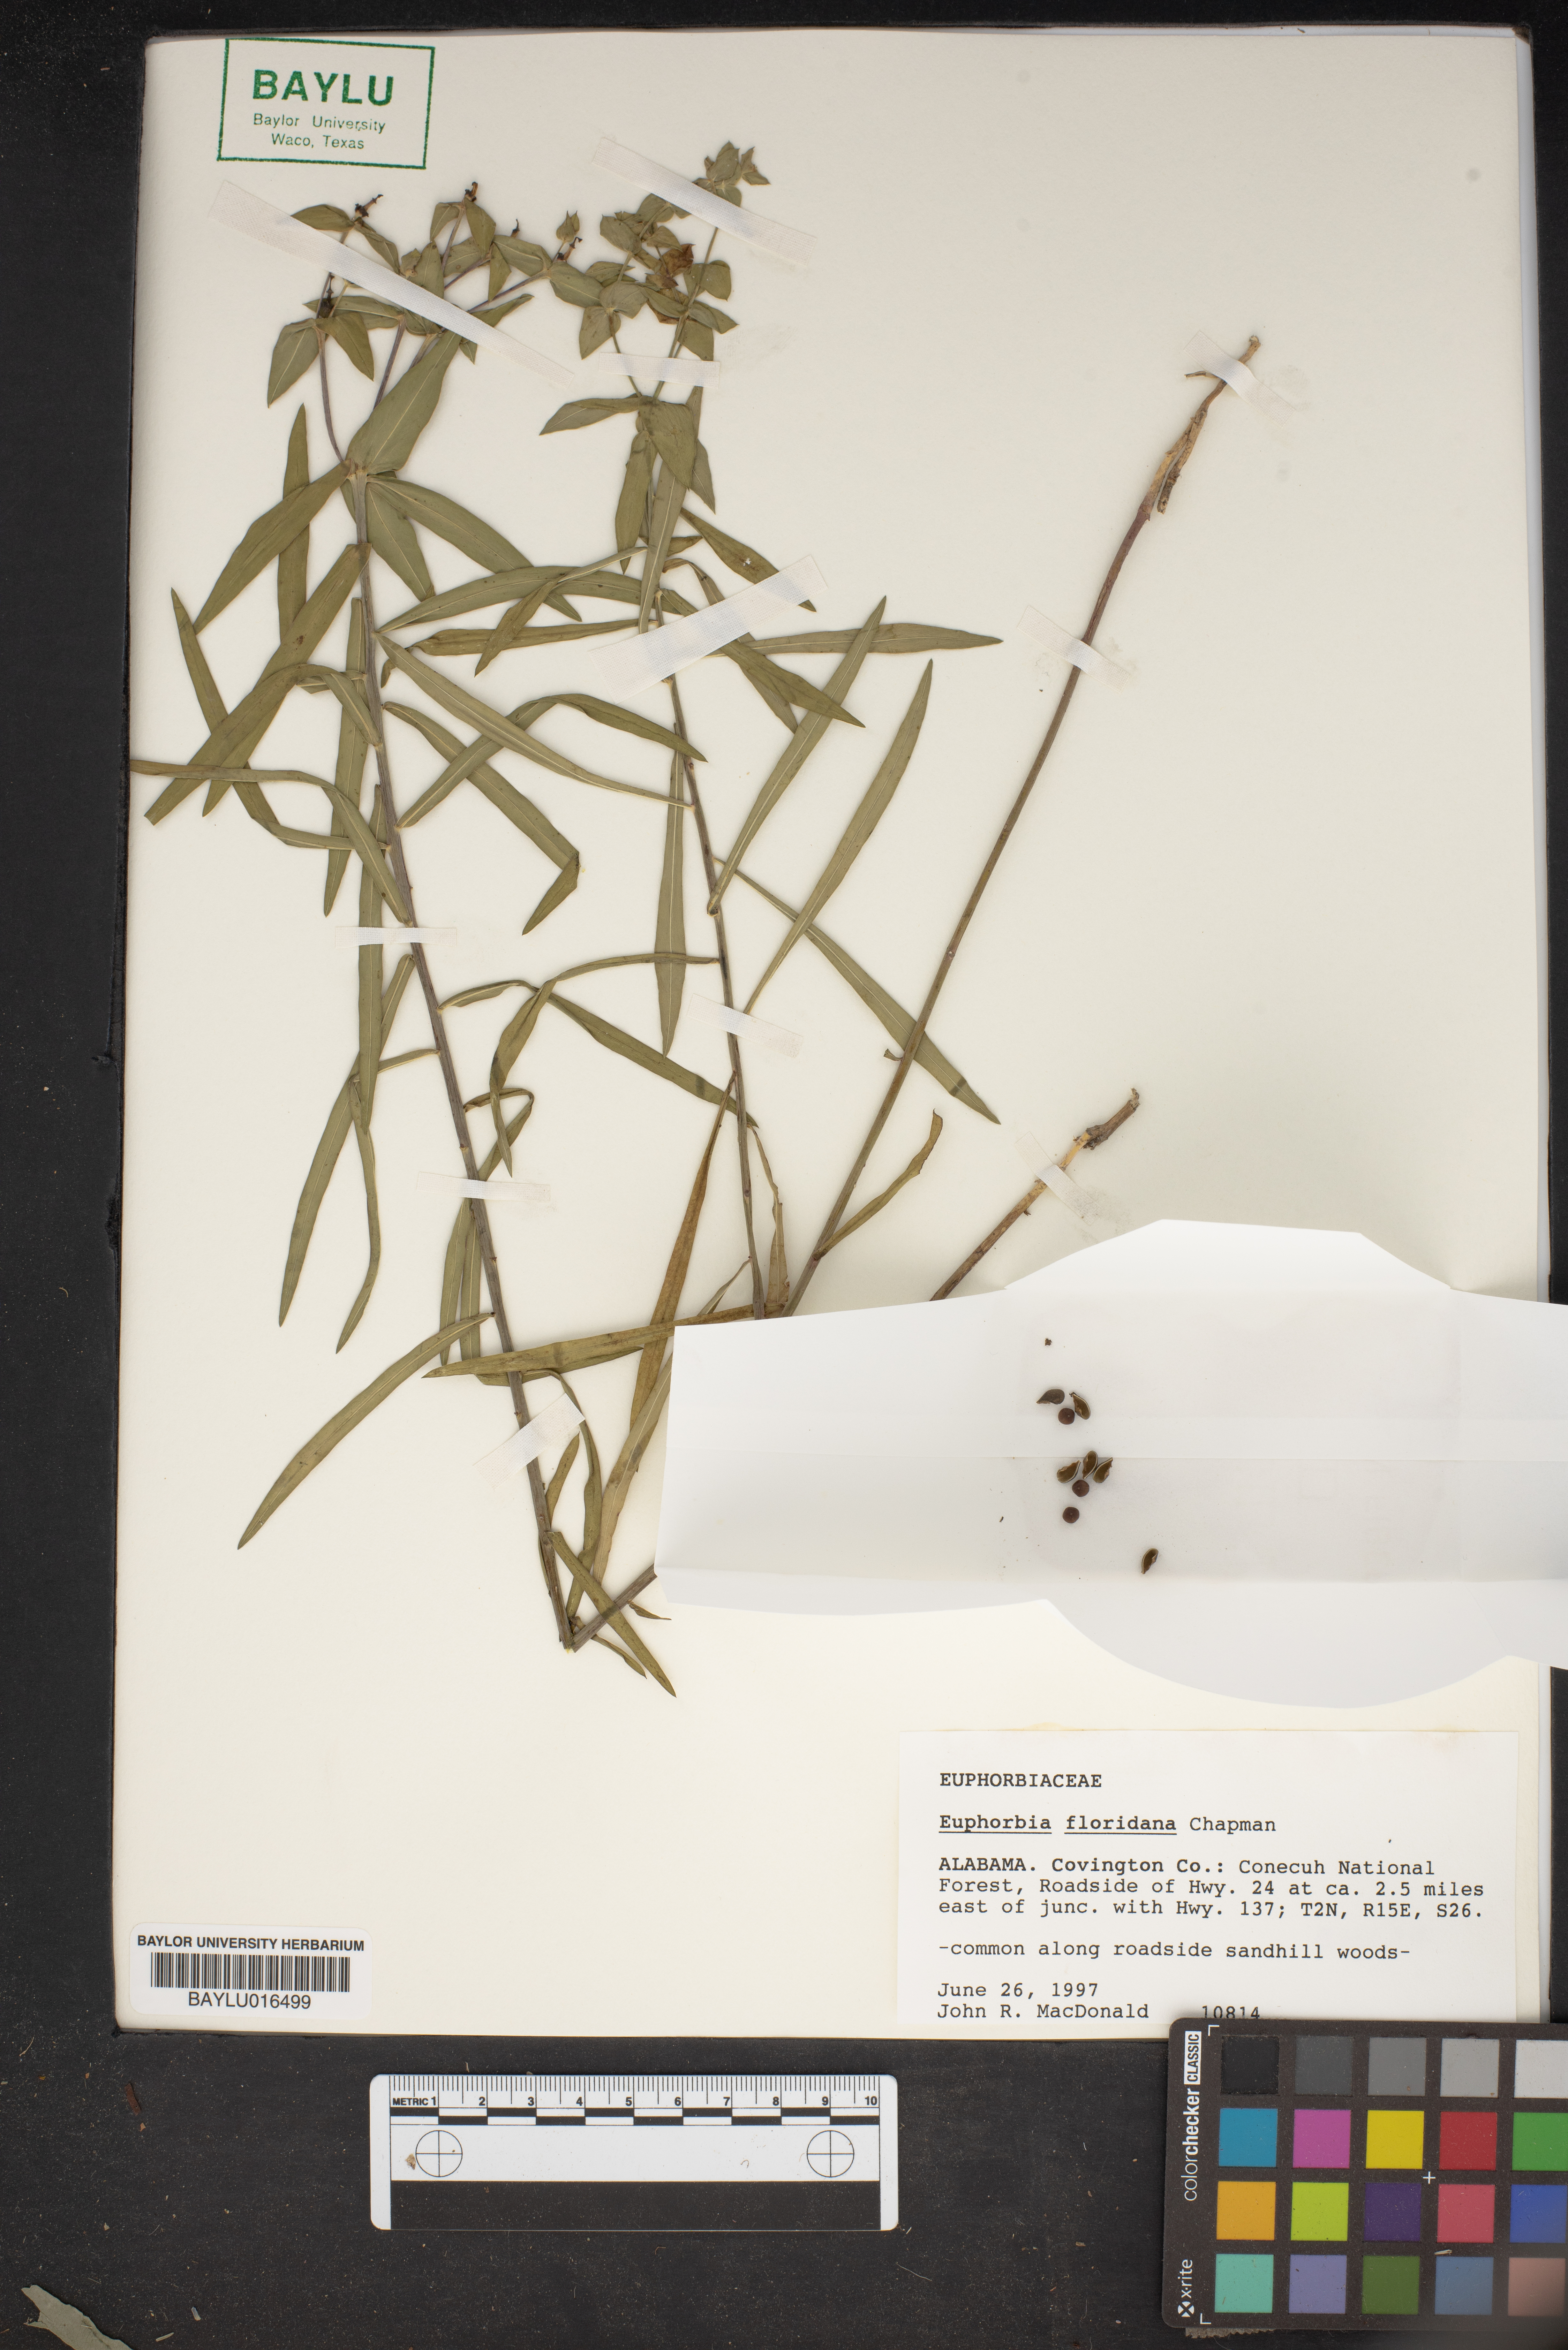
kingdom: Plantae
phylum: Tracheophyta
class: Magnoliopsida
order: Malpighiales
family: Euphorbiaceae
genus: Euphorbia
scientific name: Euphorbia floridana
